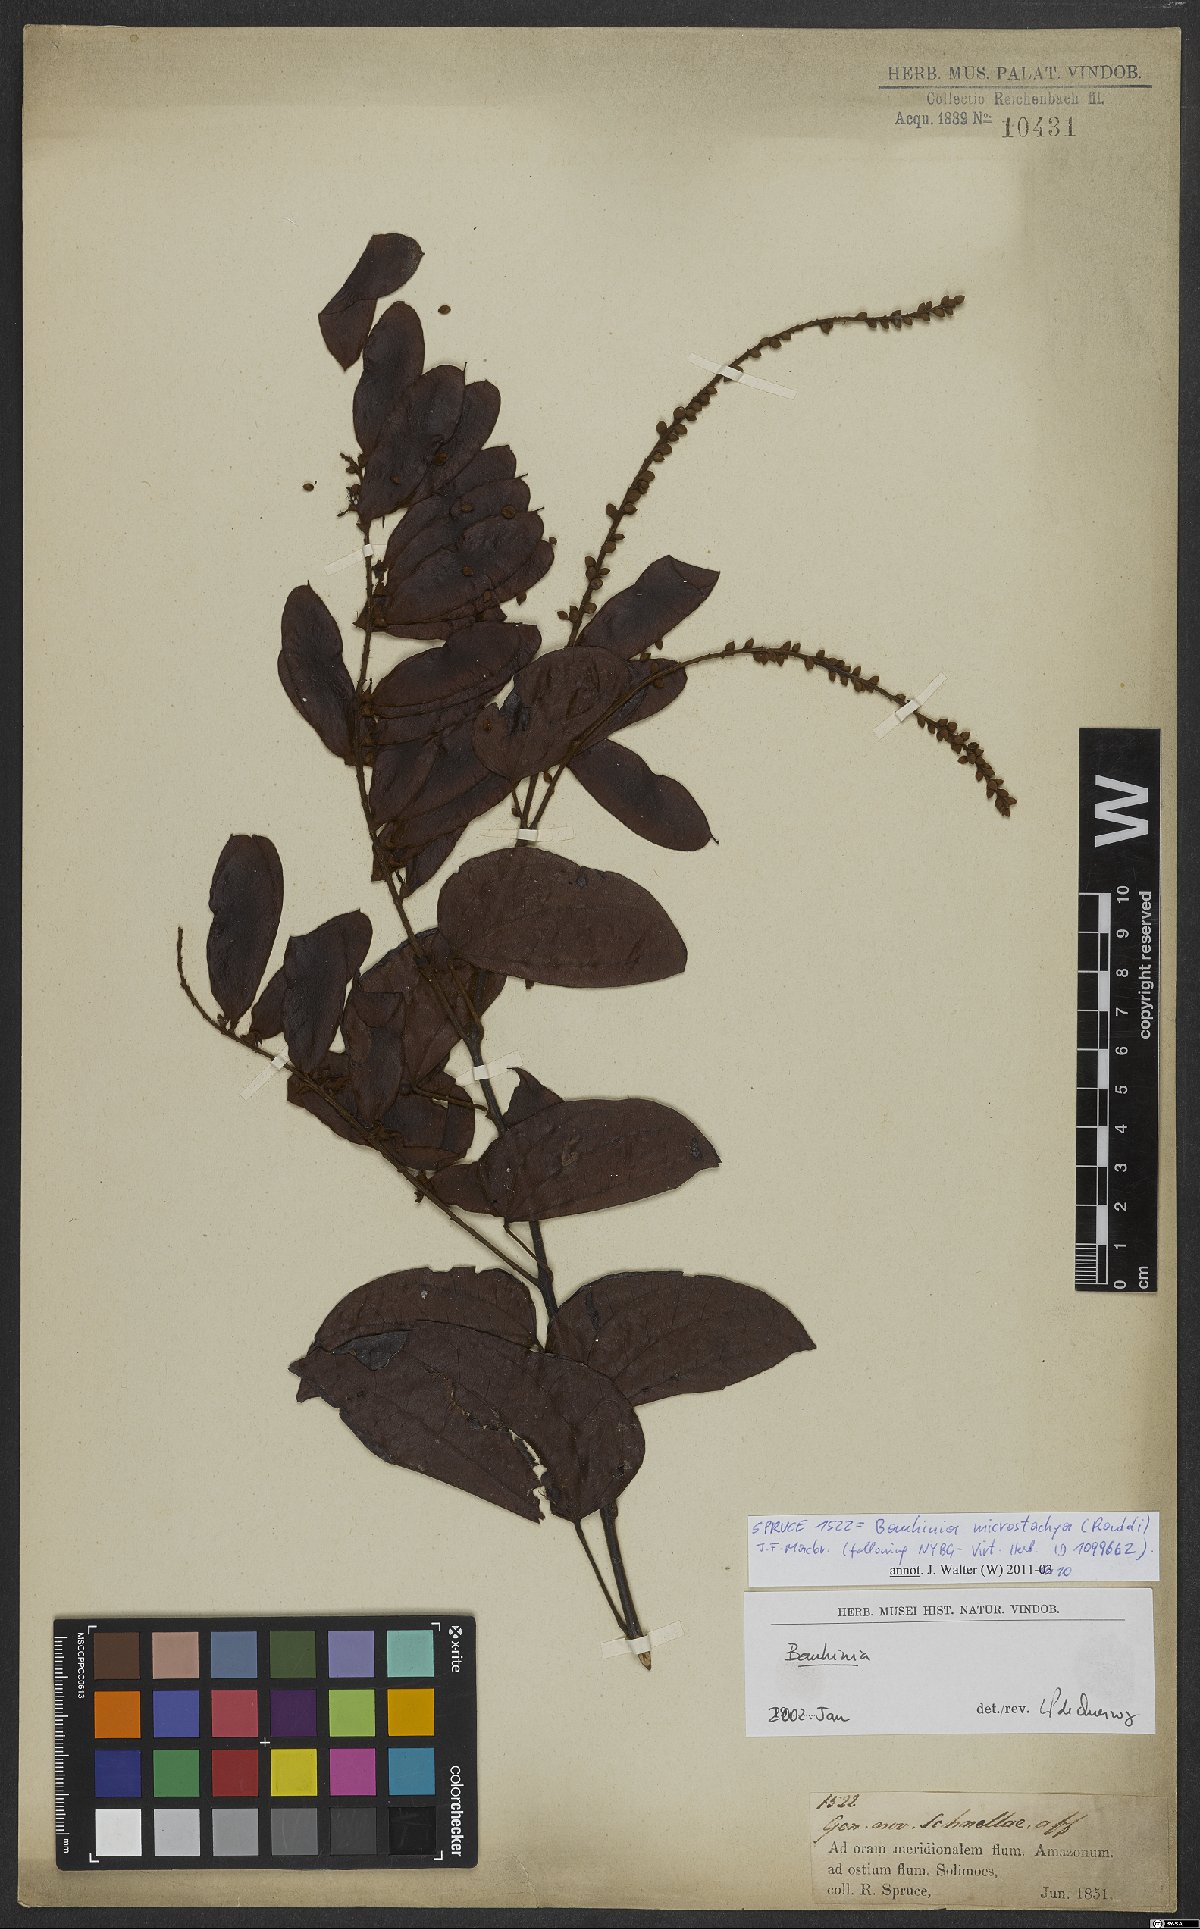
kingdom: Plantae
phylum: Tracheophyta
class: Magnoliopsida
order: Fabales
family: Fabaceae
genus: Schnella
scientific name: Schnella microstachya
